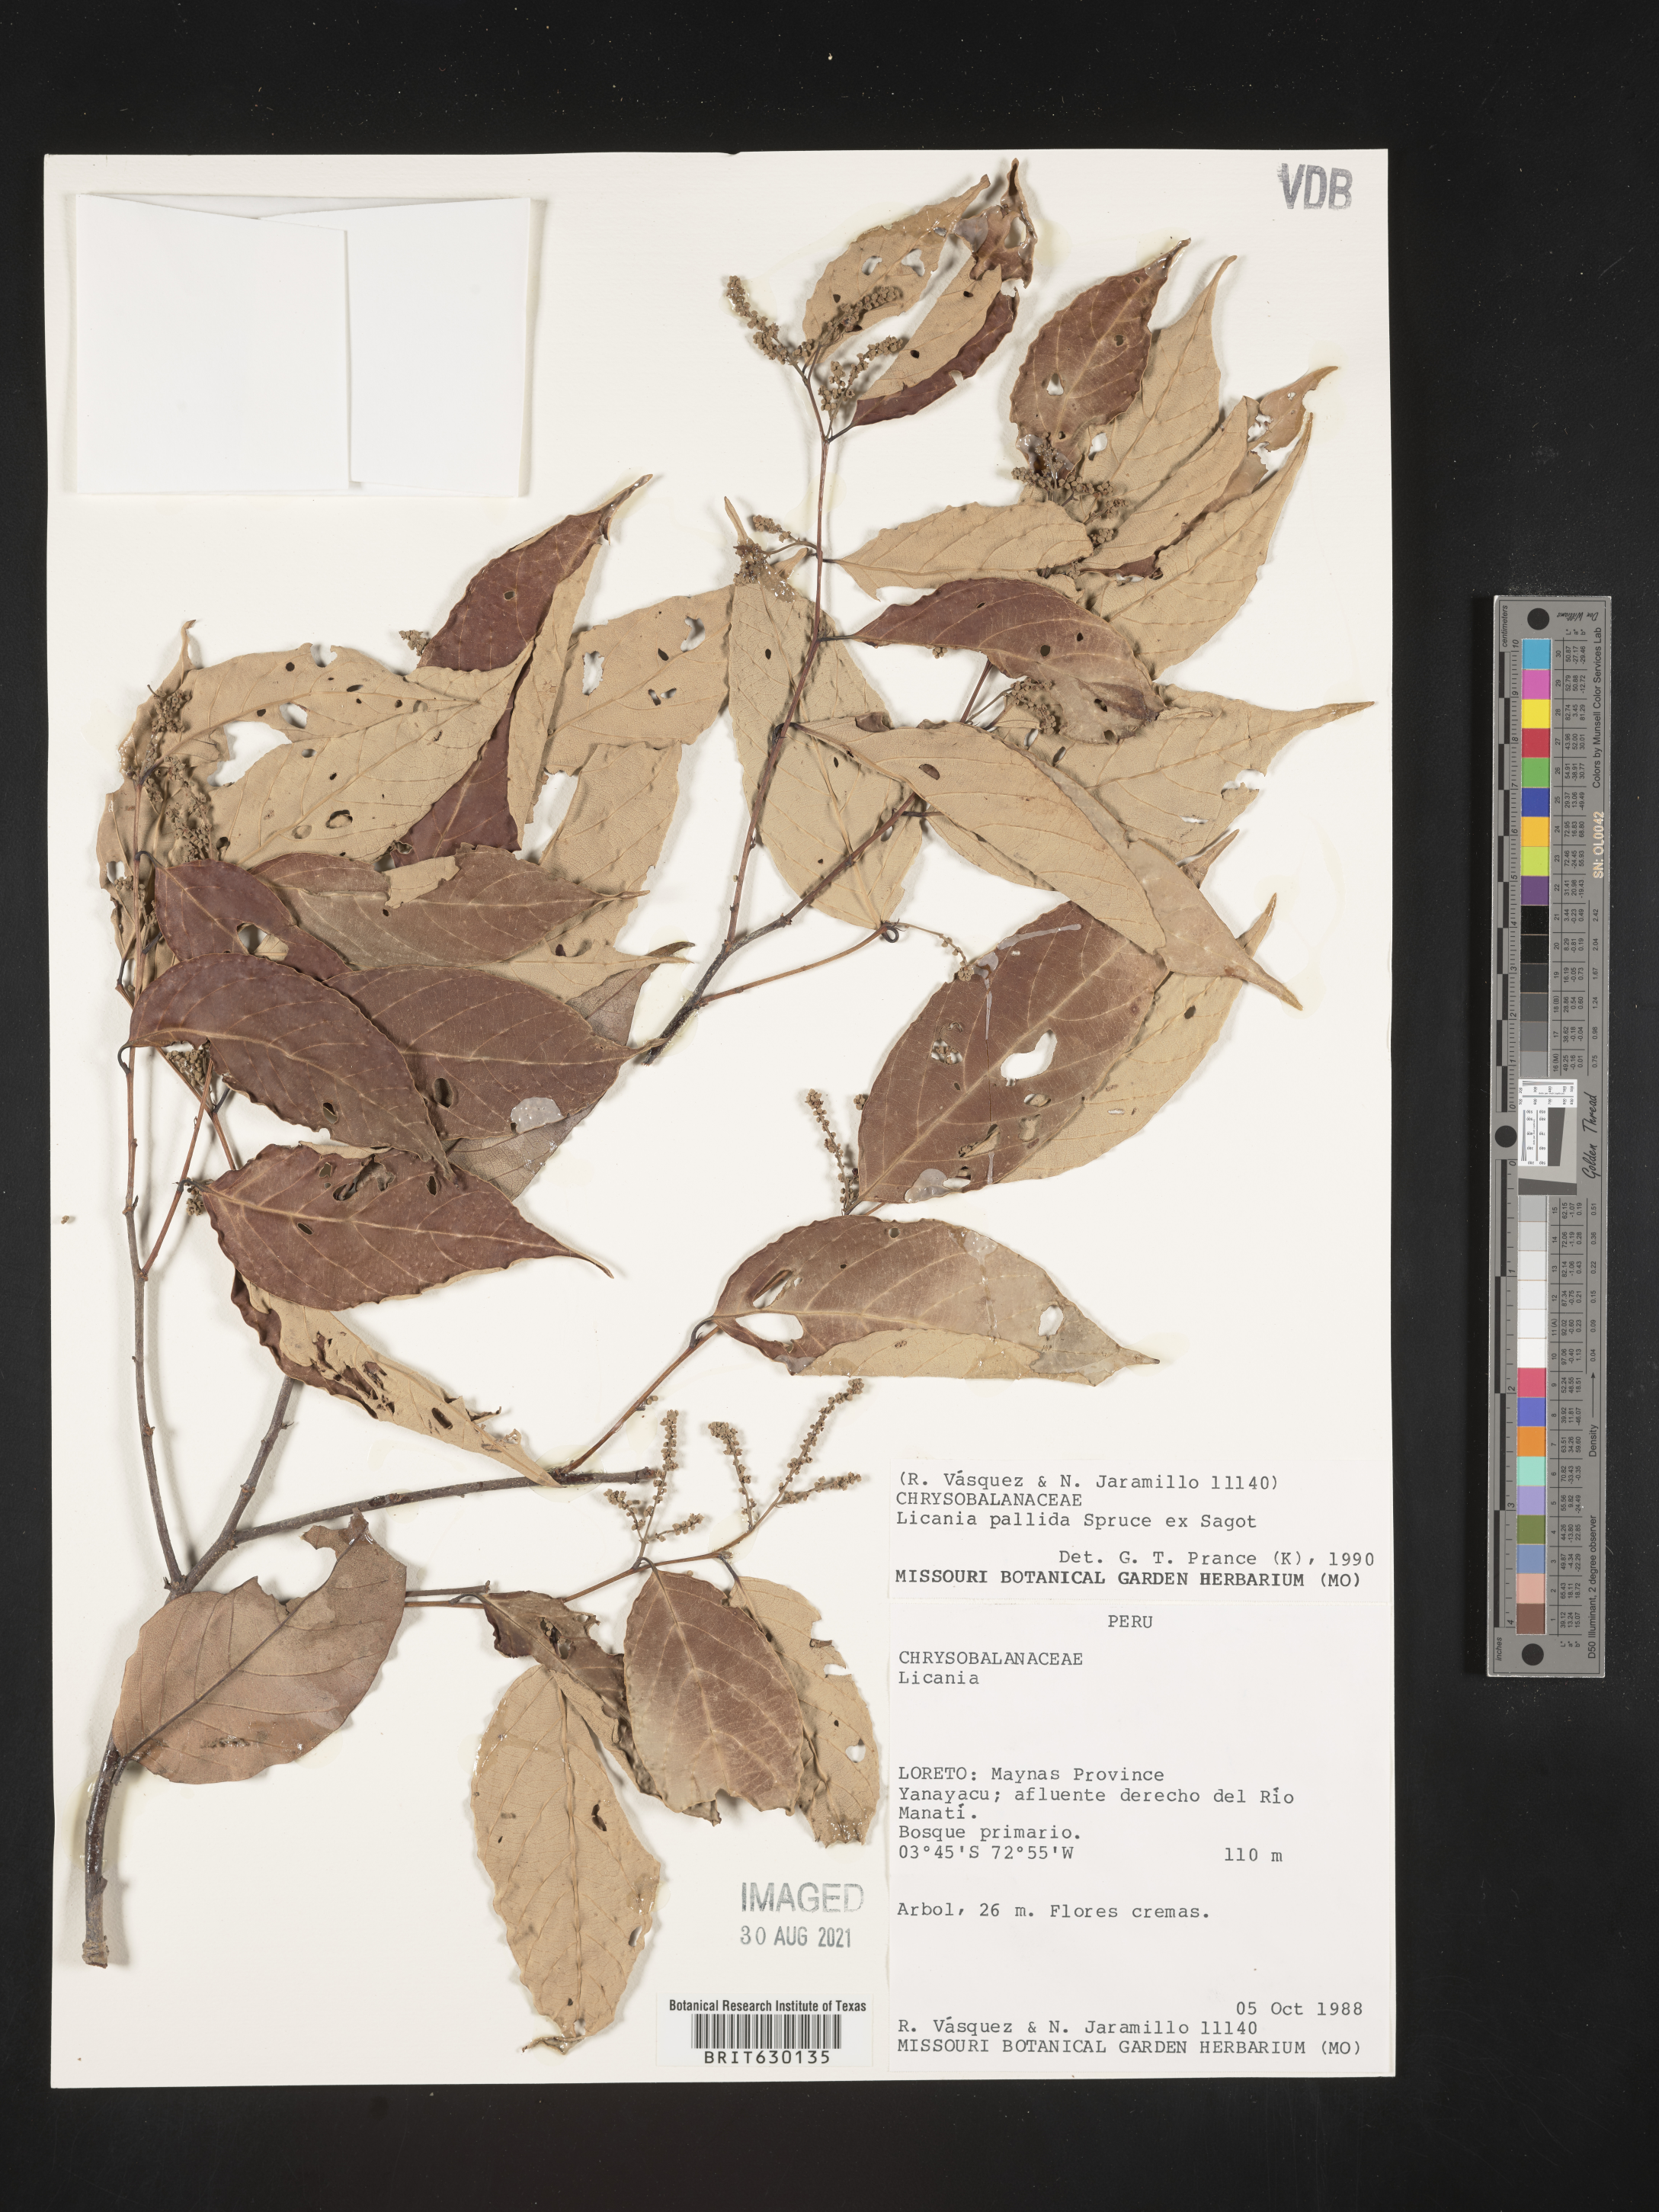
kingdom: Plantae
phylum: Tracheophyta
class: Magnoliopsida
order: Malpighiales
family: Chrysobalanaceae
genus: Licania
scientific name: Licania pallida
